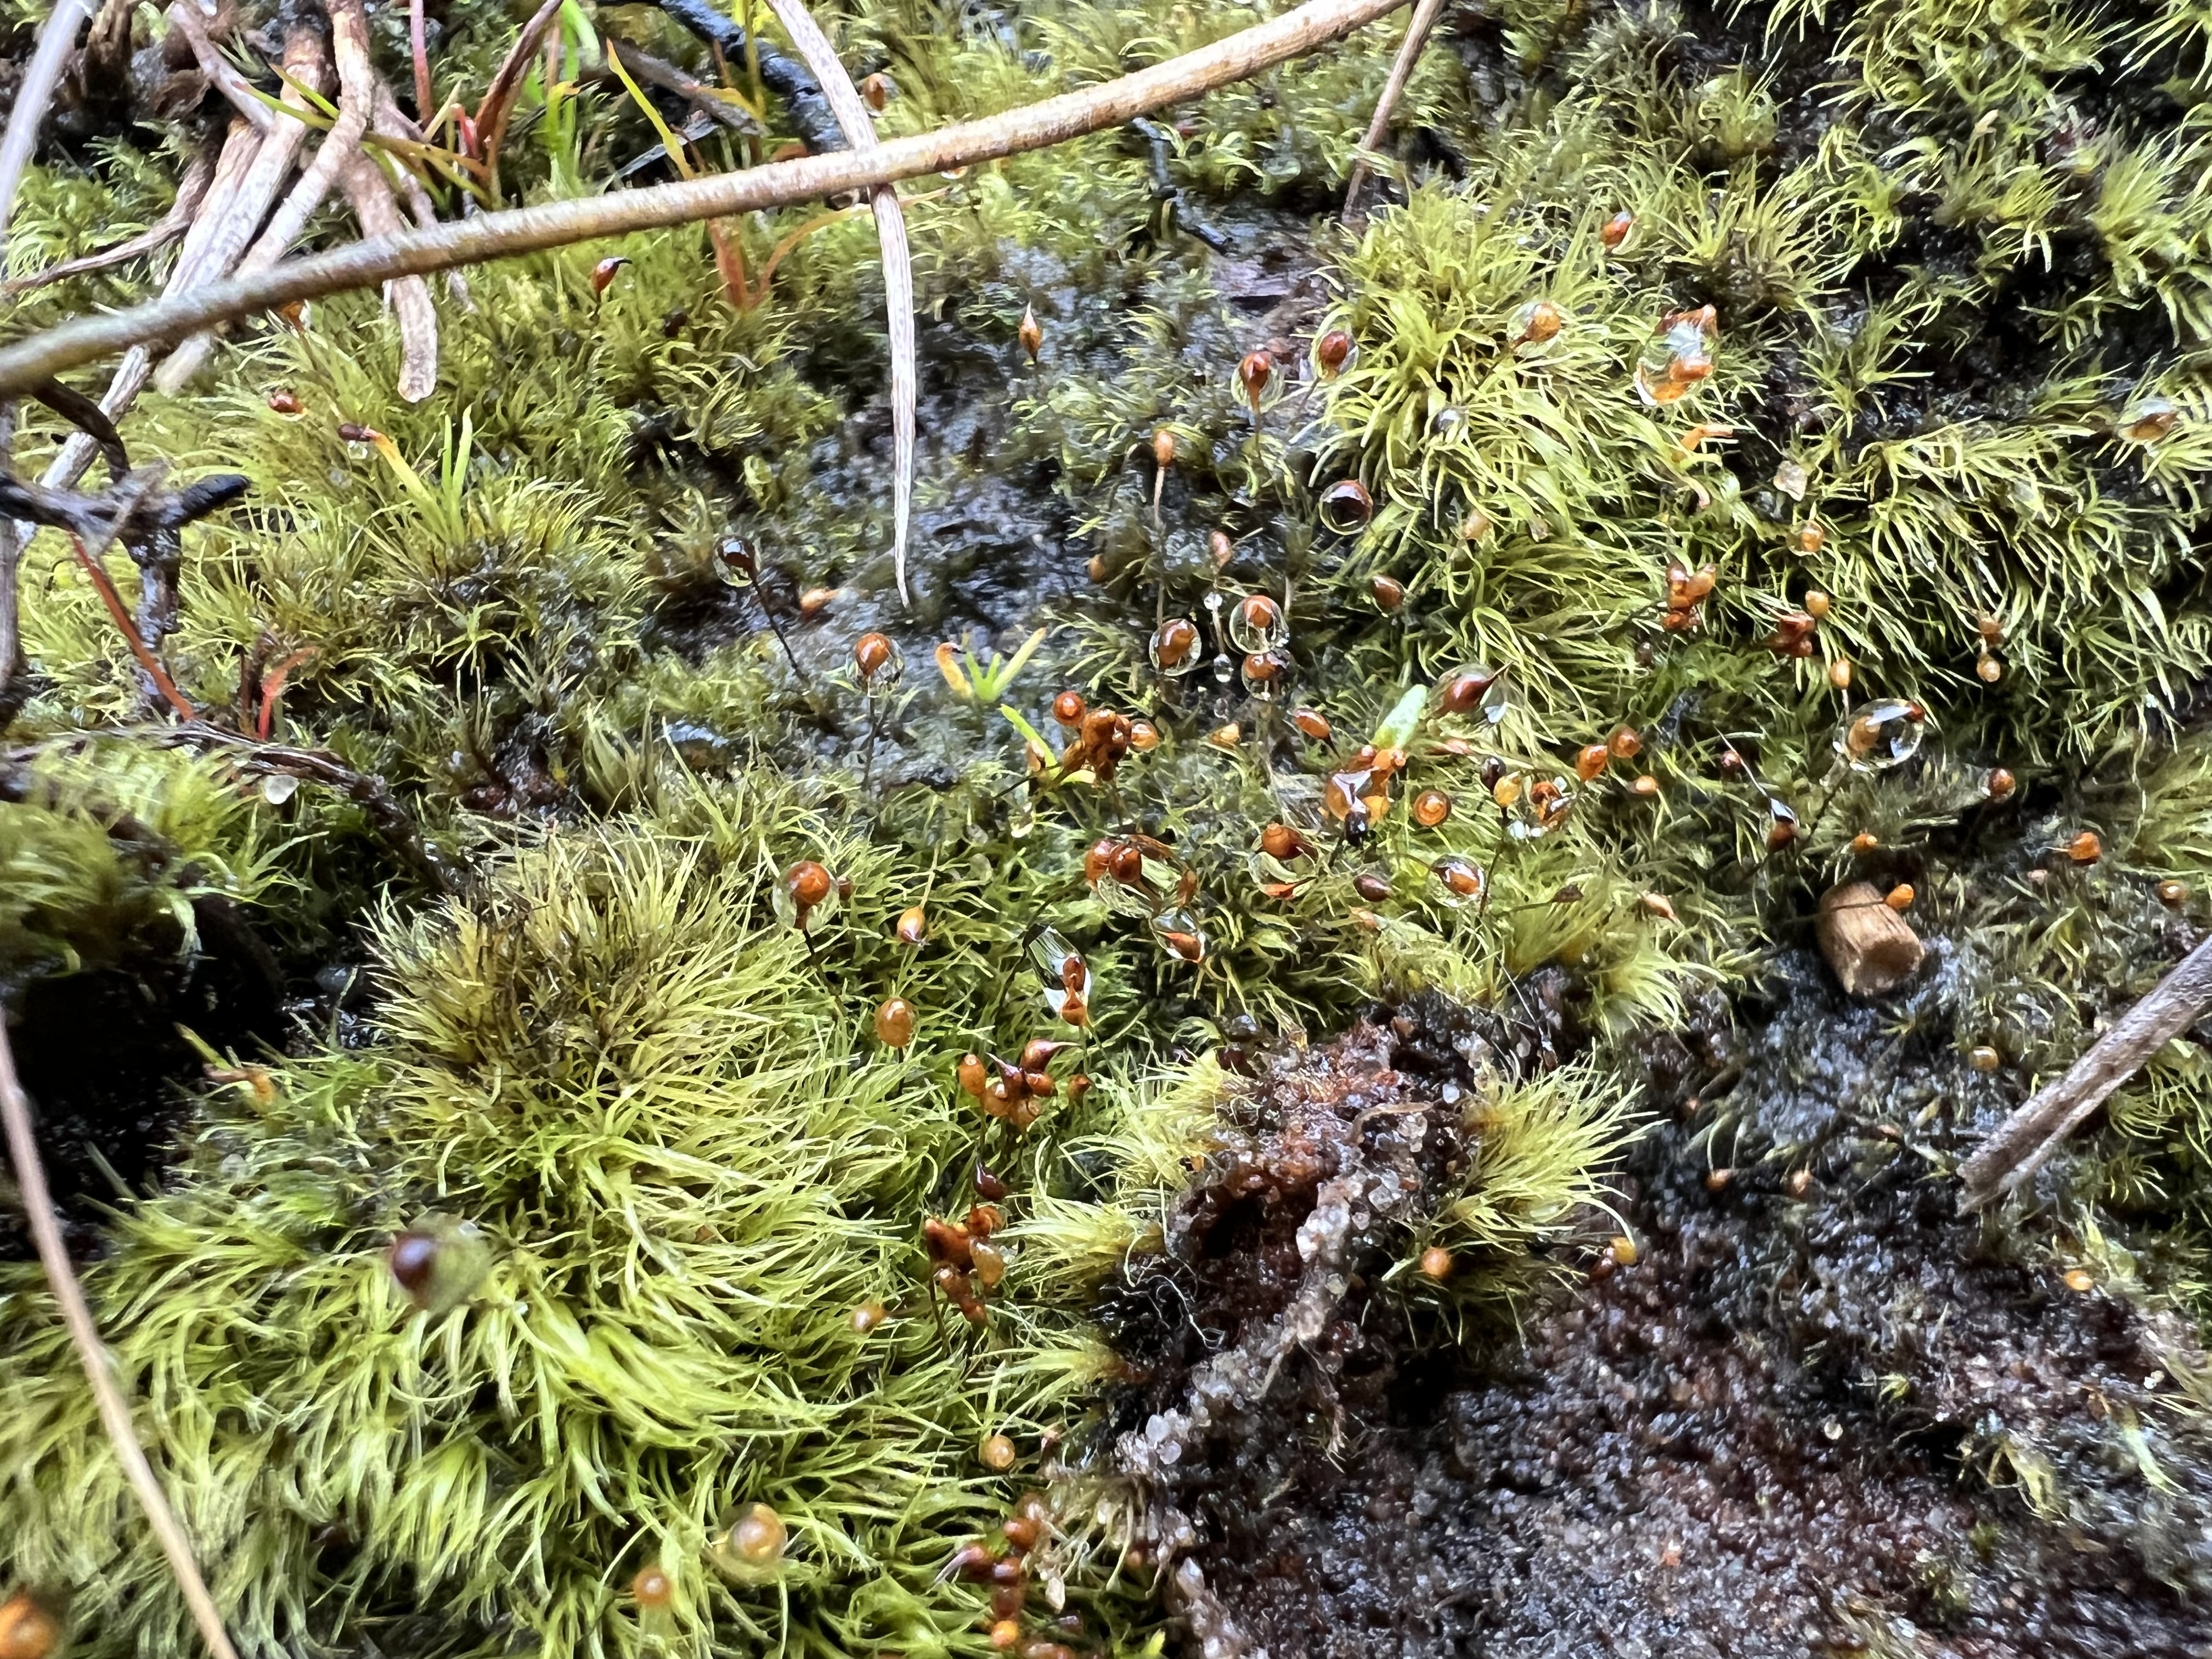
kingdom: Plantae
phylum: Bryophyta
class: Bryopsida
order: Dicranales
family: Dicranellaceae
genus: Dicranella
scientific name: Dicranella cerviculata
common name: Mose-fløjlsmos
